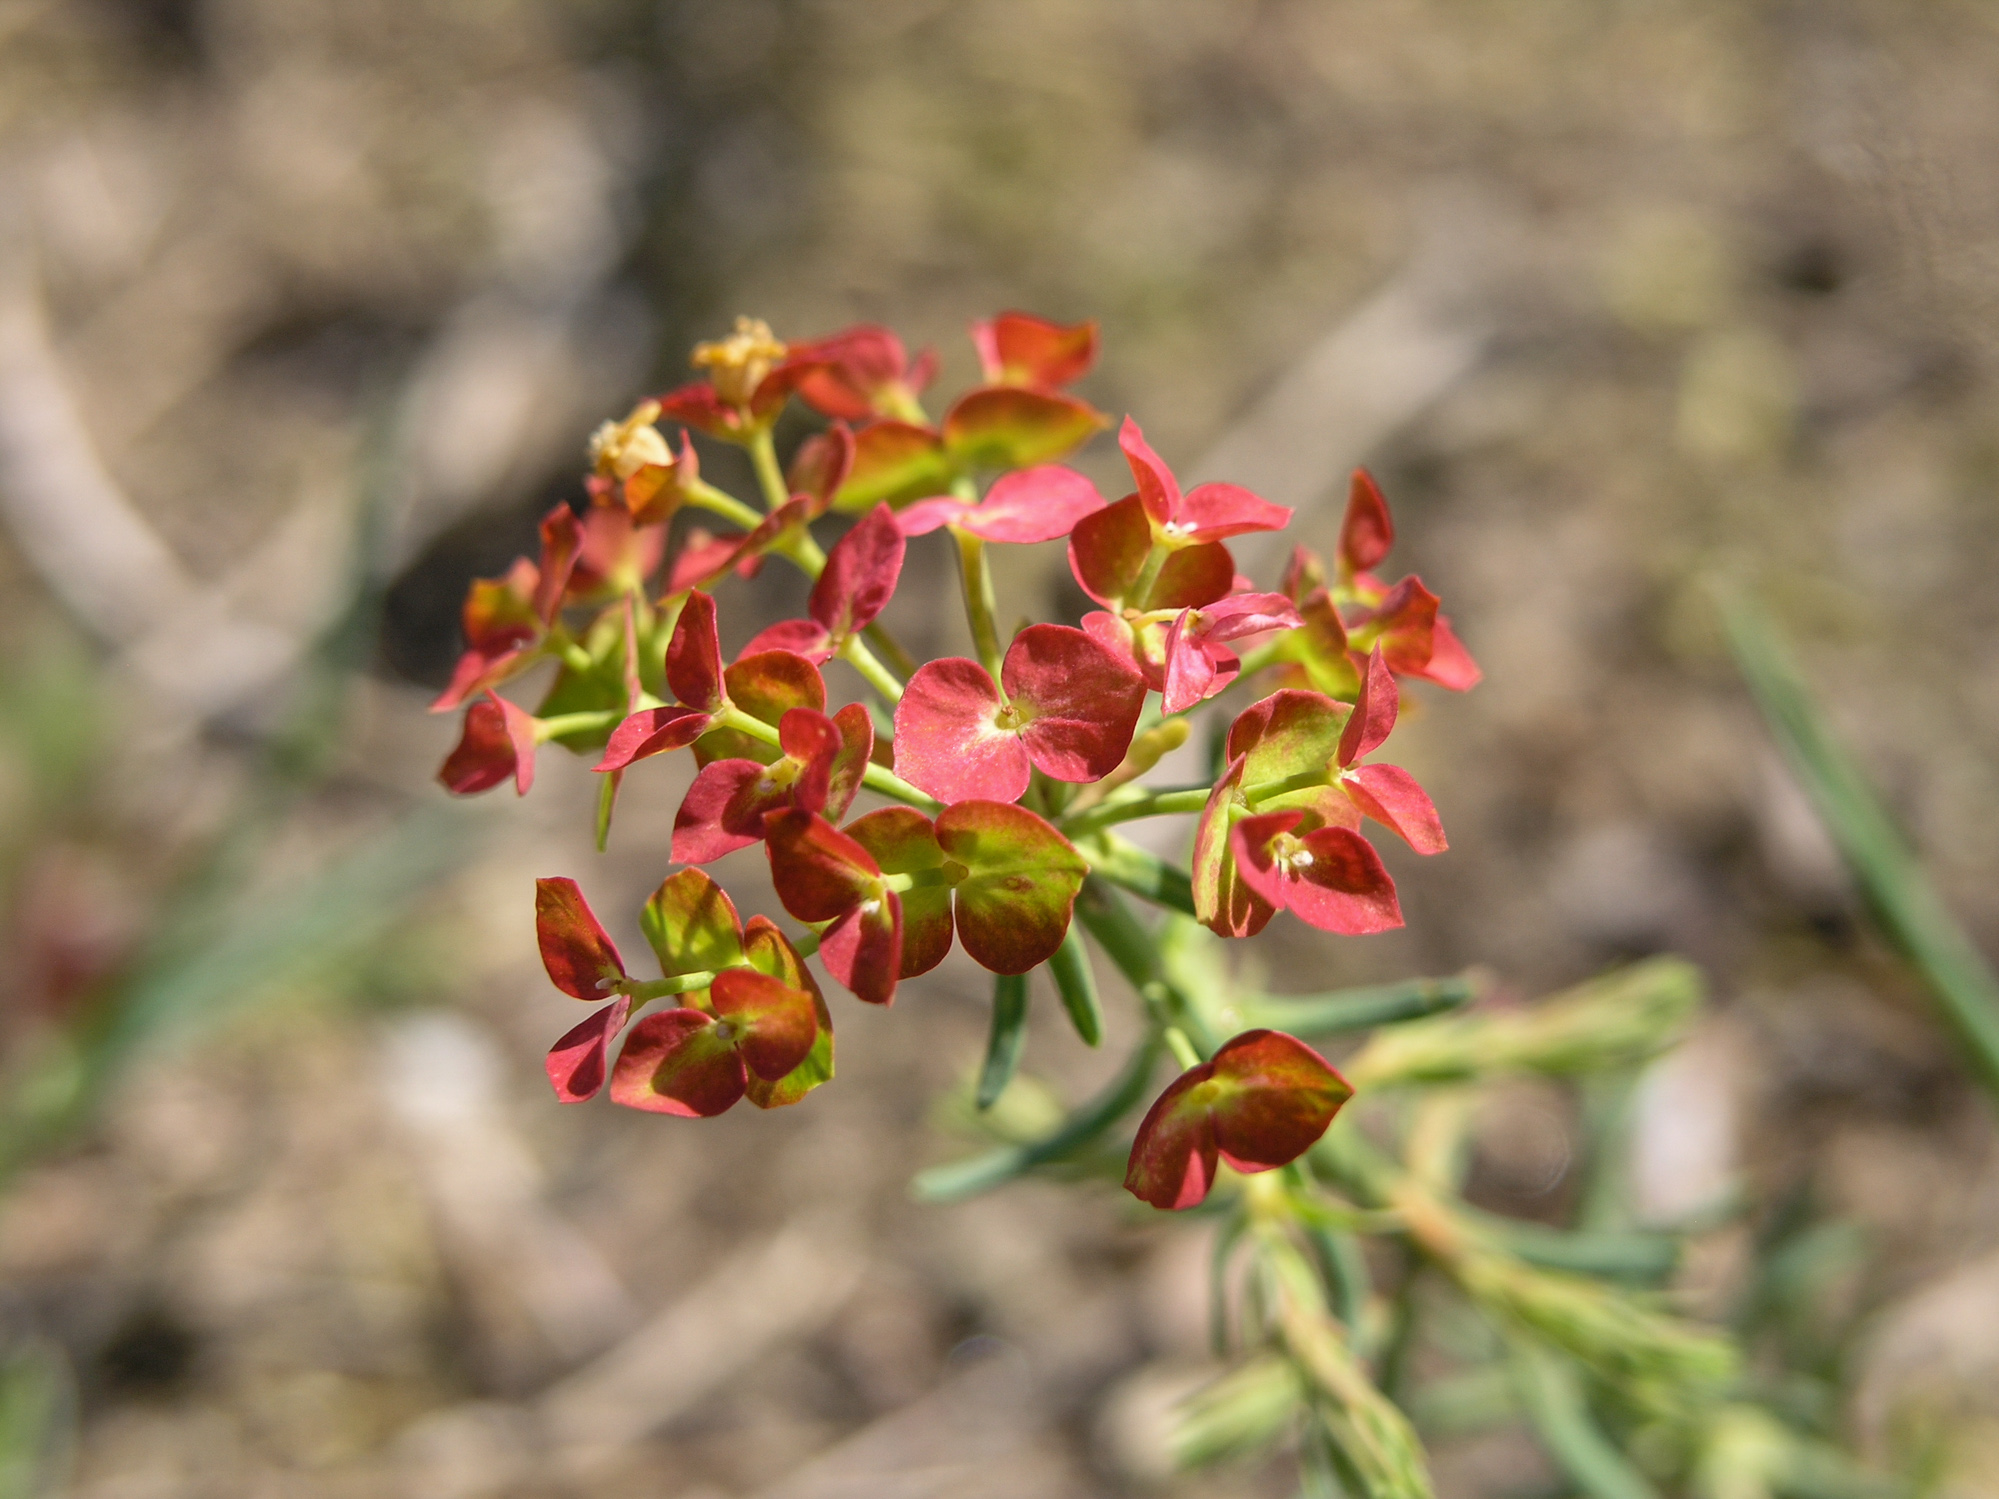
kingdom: Plantae
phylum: Tracheophyta
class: Magnoliopsida
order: Malpighiales
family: Euphorbiaceae
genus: Euphorbia
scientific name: Euphorbia cyparissias
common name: Cypress spurge
